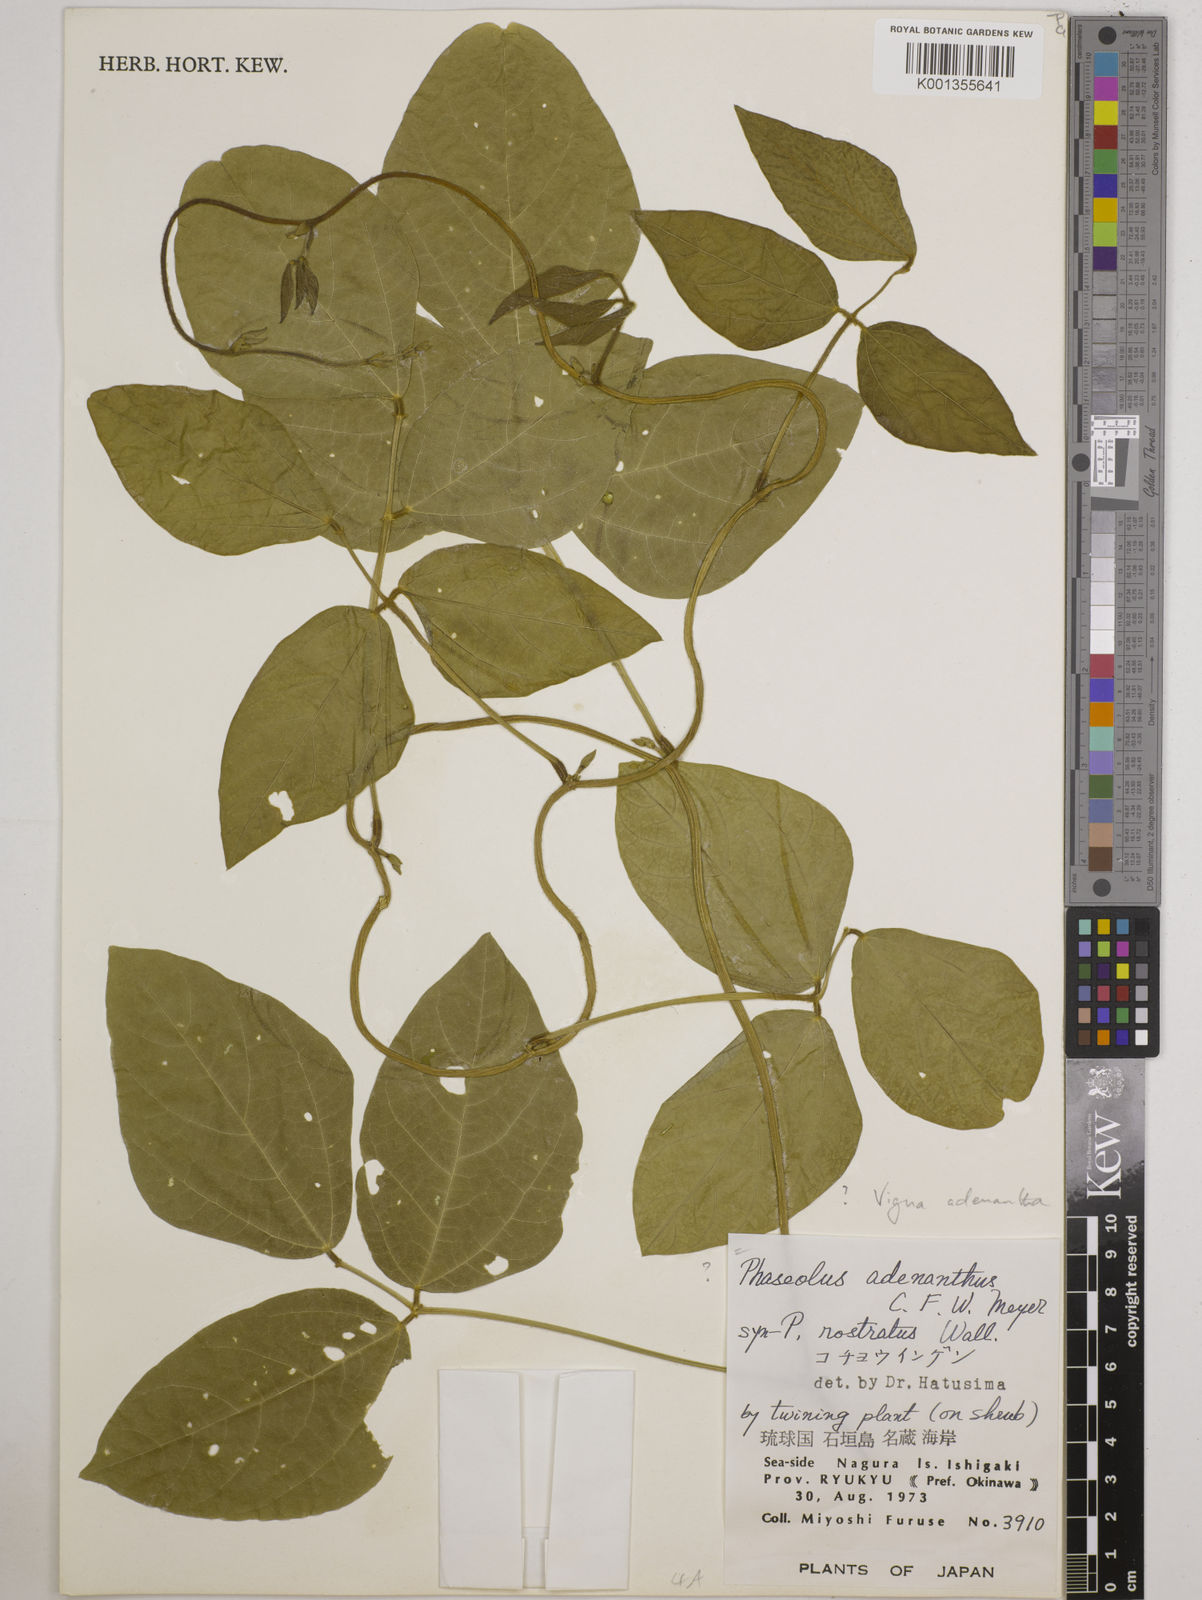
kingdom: Plantae
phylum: Tracheophyta
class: Magnoliopsida
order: Fabales
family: Fabaceae
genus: Leptospron
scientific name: Leptospron adenanthum
